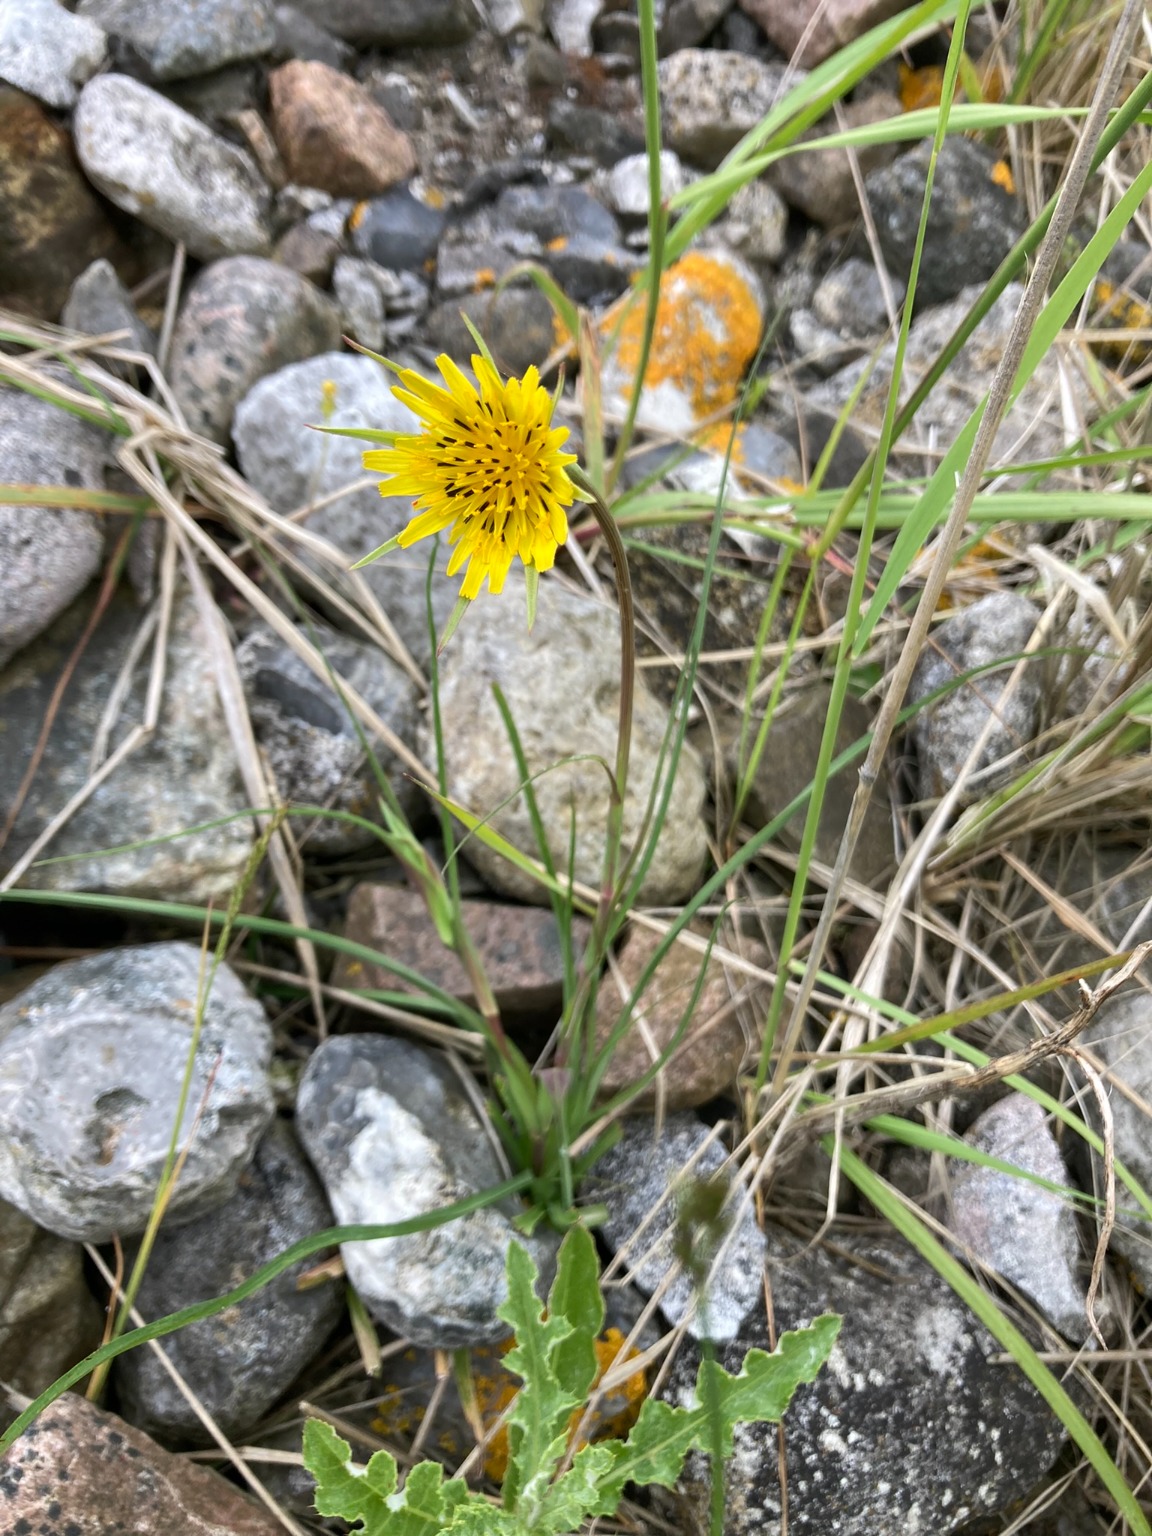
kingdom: Plantae
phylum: Tracheophyta
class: Magnoliopsida
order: Asterales
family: Asteraceae
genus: Tragopogon
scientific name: Tragopogon minor
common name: Småkronet gedeskæg
